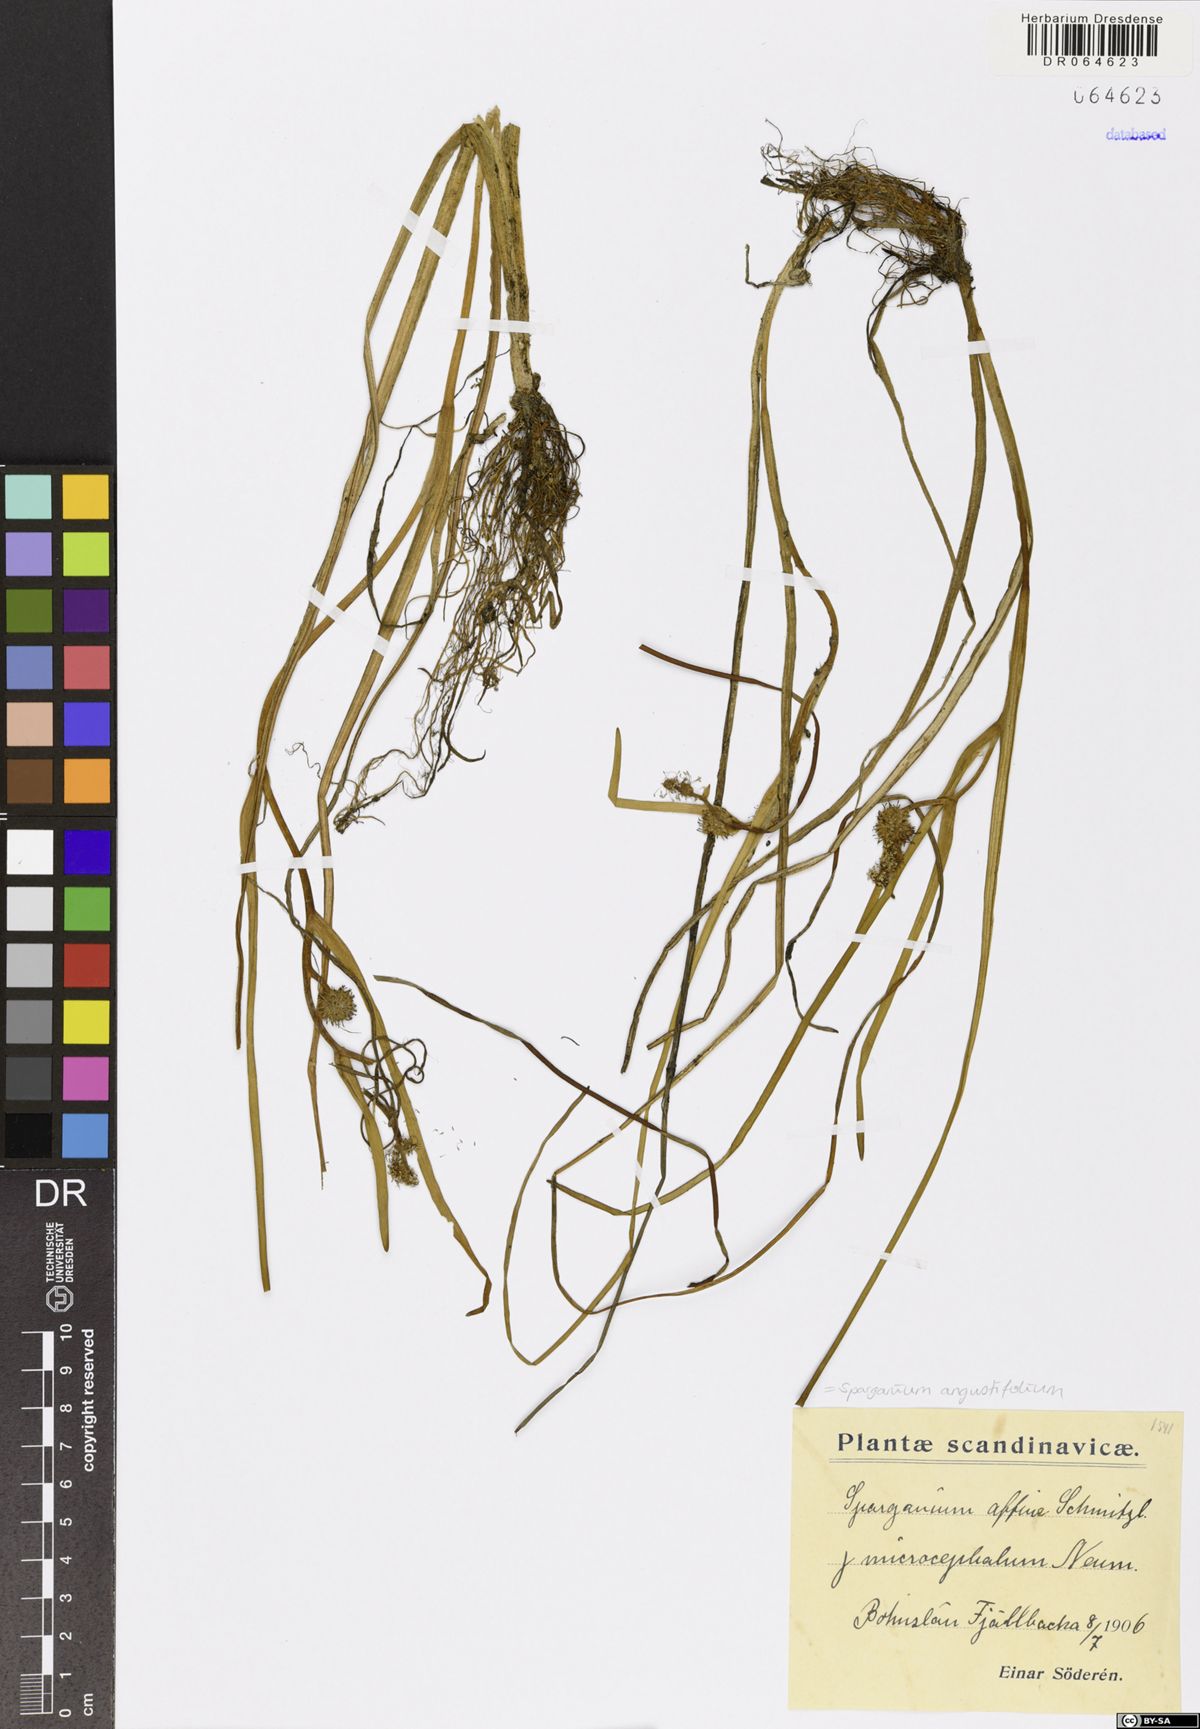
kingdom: Plantae
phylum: Tracheophyta
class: Liliopsida
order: Poales
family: Typhaceae
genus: Sparganium
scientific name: Sparganium angustifolium
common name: Floating bur-reed
